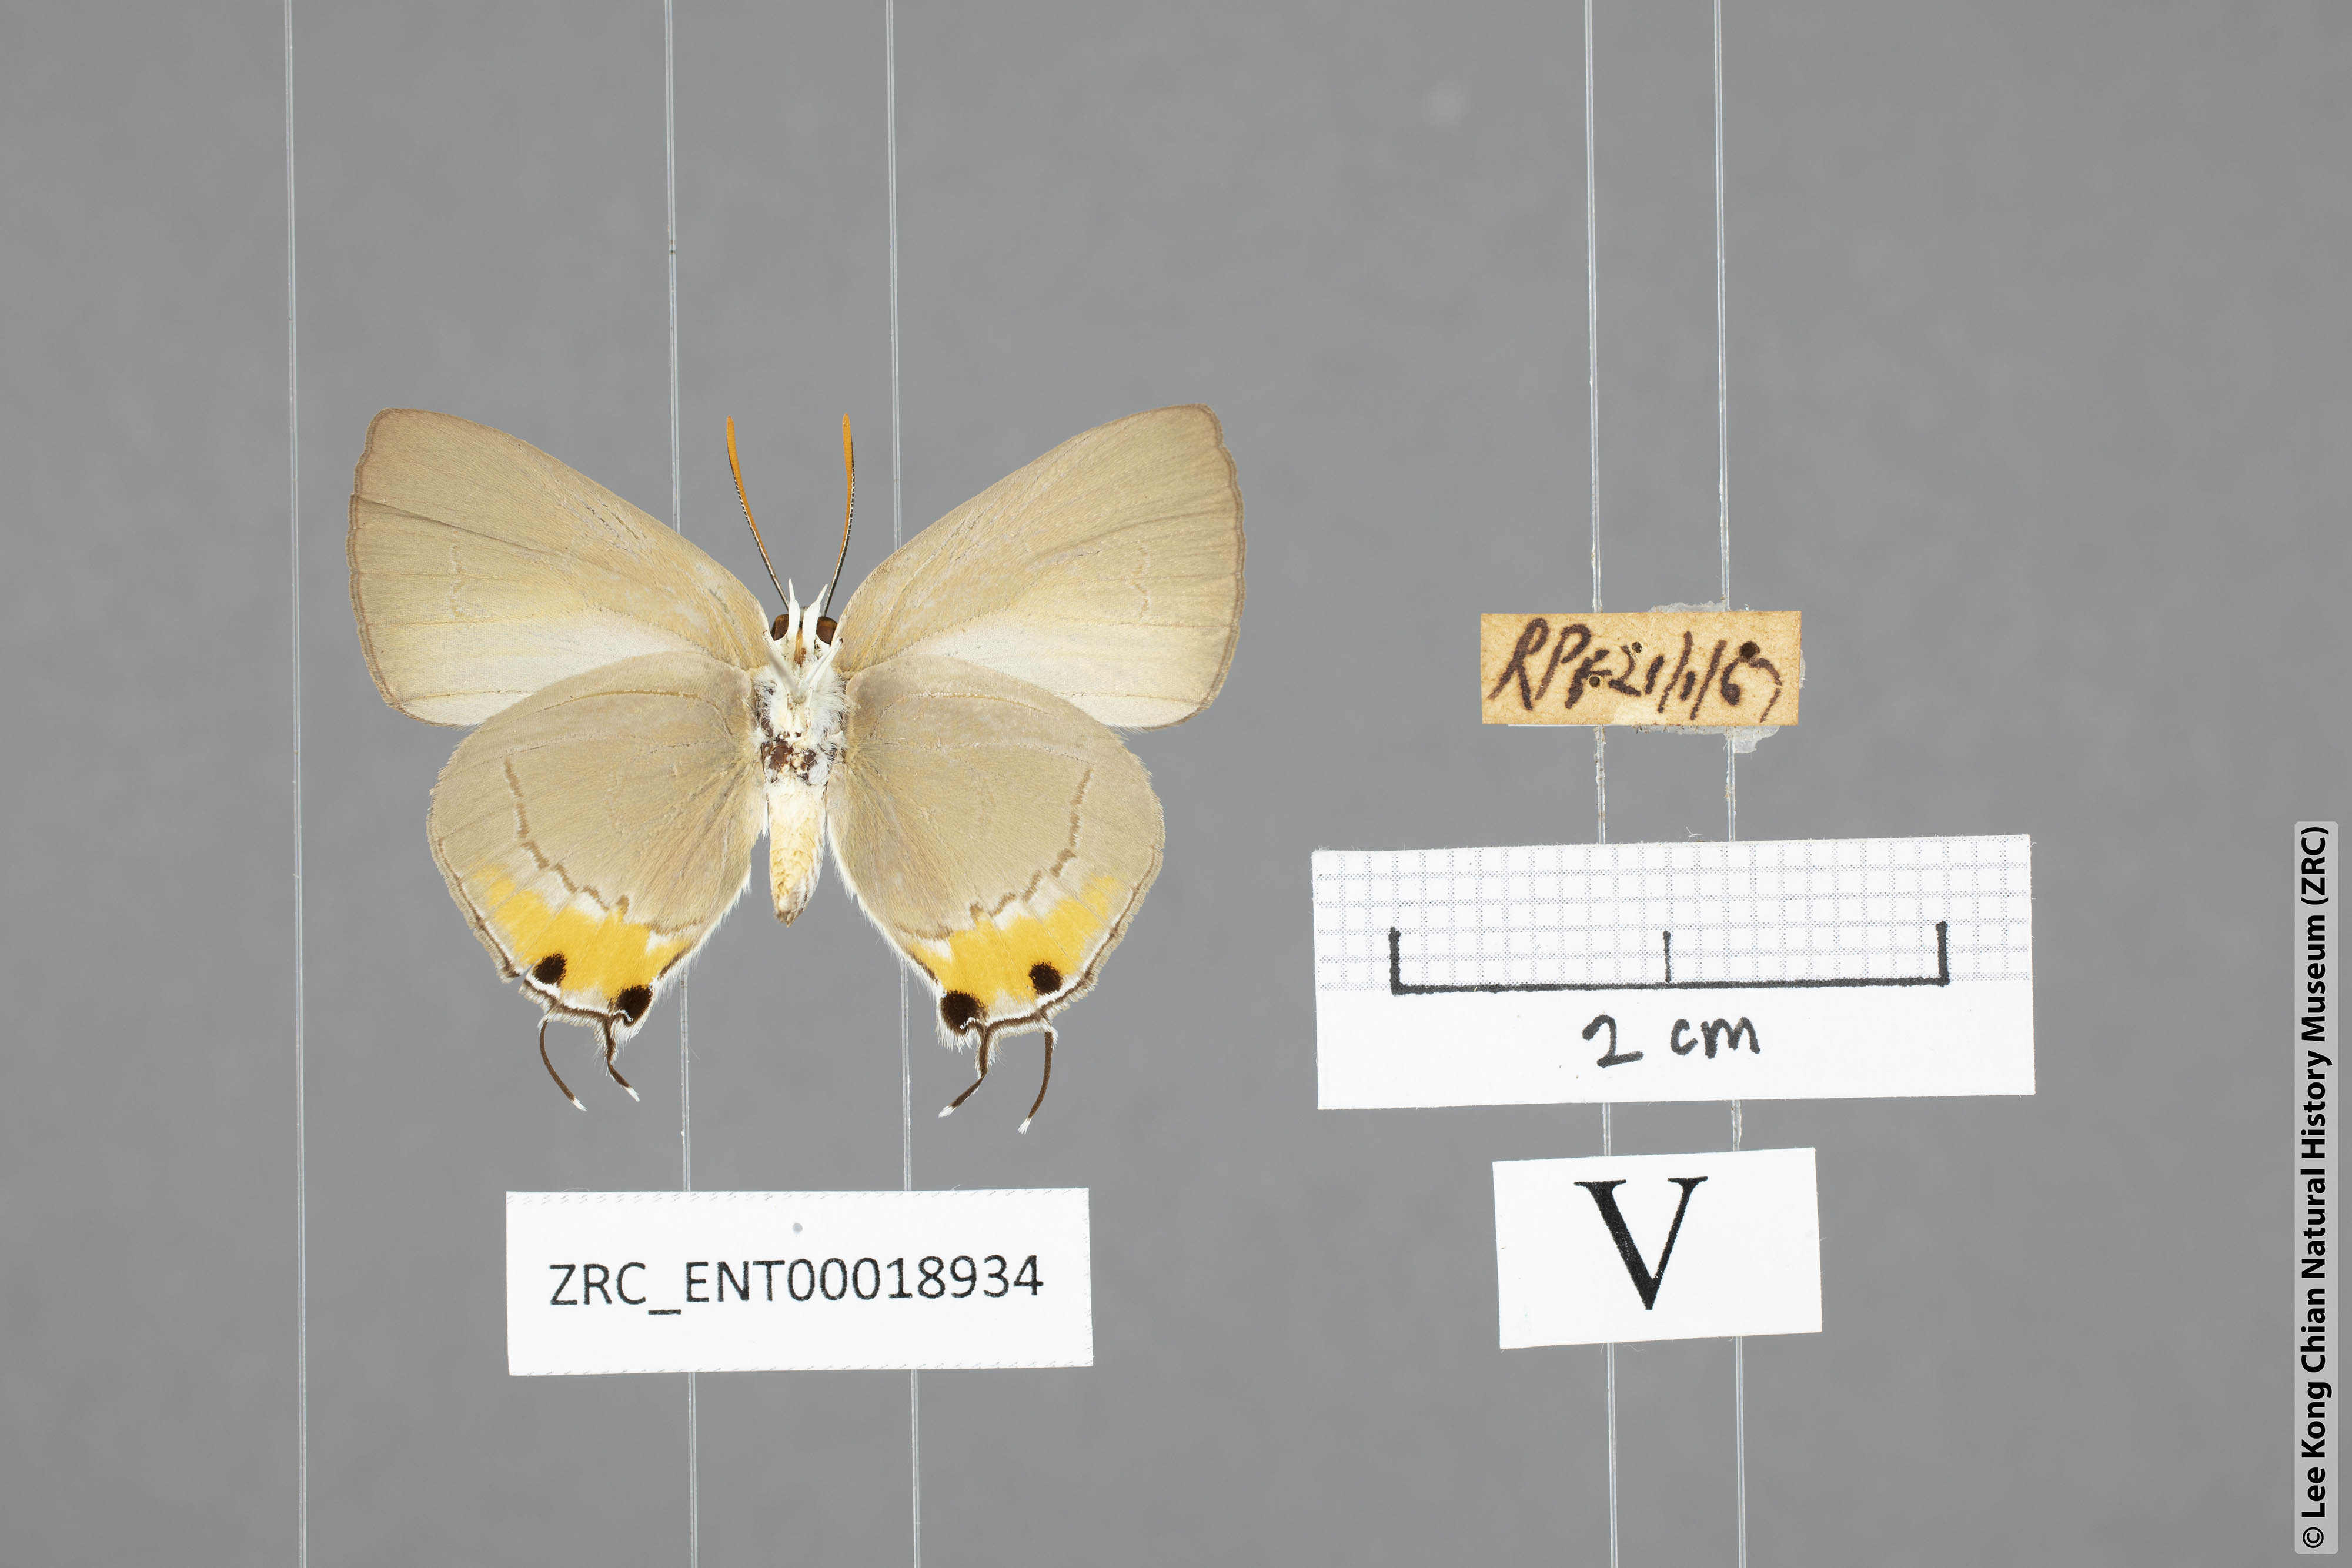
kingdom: Animalia
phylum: Arthropoda
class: Insecta
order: Lepidoptera
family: Lycaenidae
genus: Ancema
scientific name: Ancema blanka
